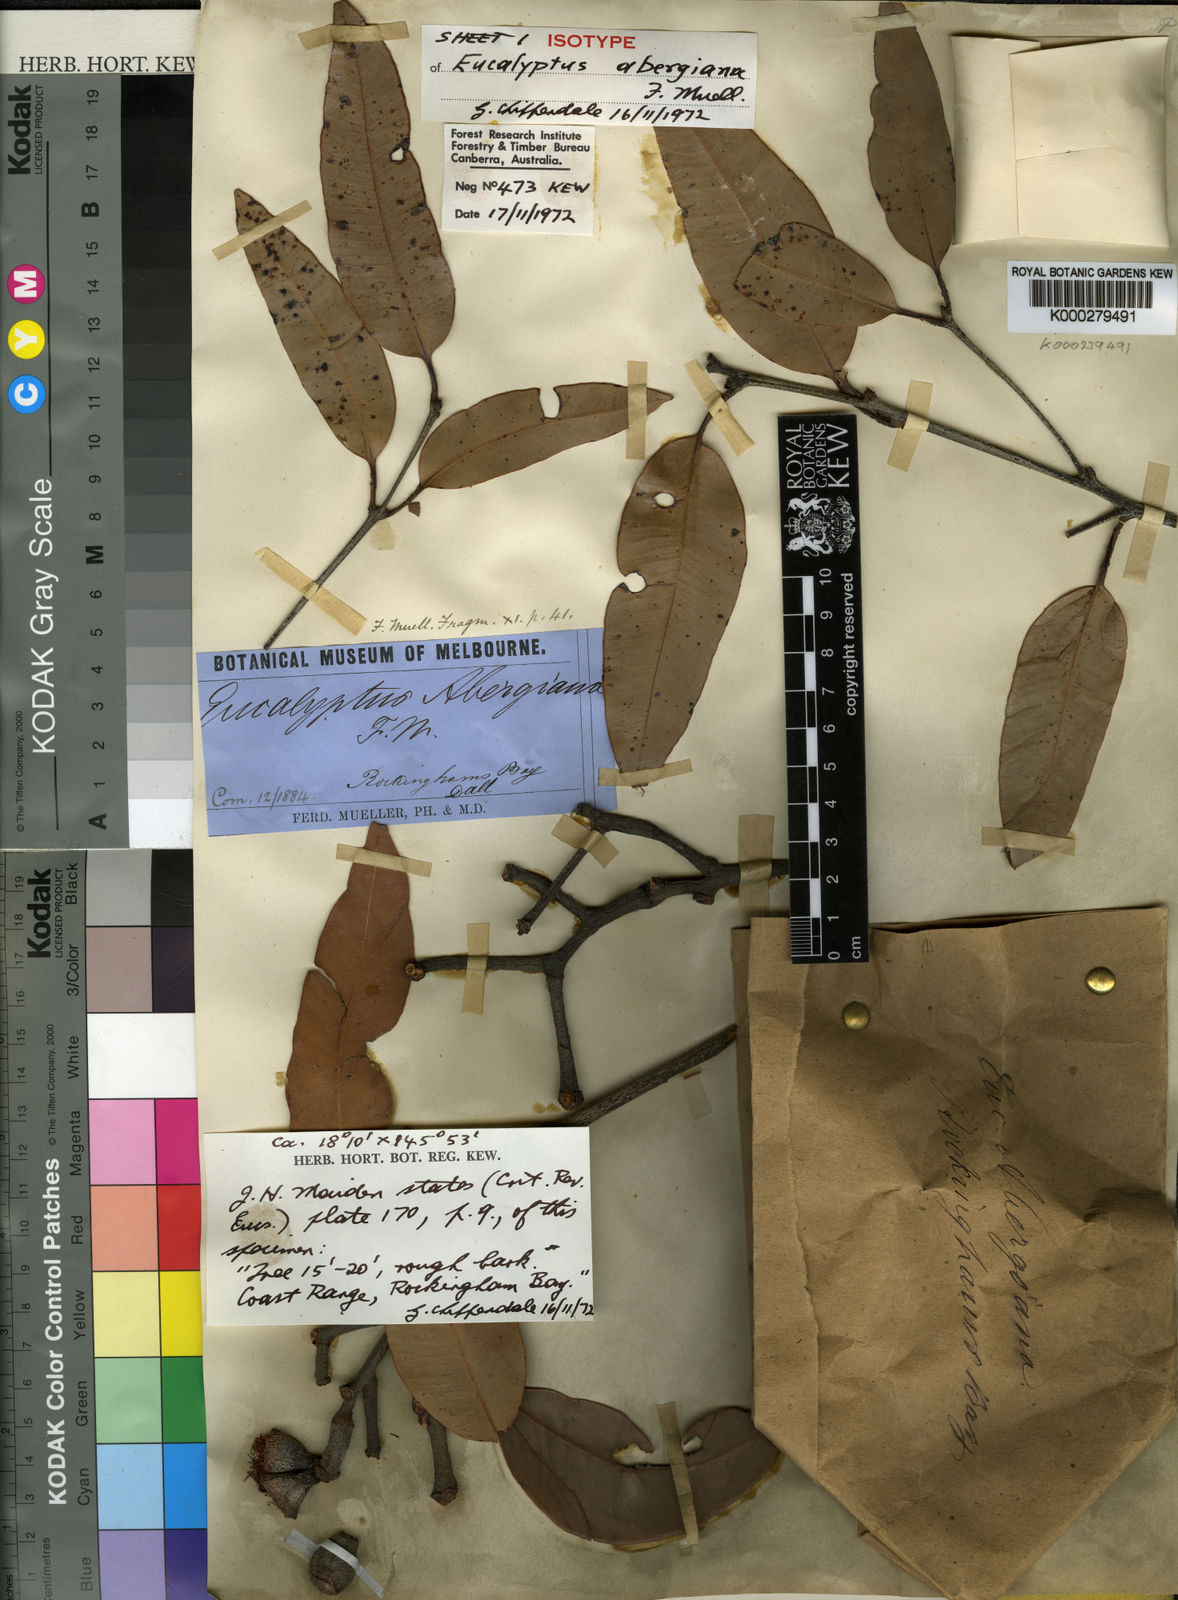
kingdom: Plantae
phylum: Tracheophyta
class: Magnoliopsida
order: Myrtales
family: Myrtaceae
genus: Corymbia
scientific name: Corymbia abergiana
